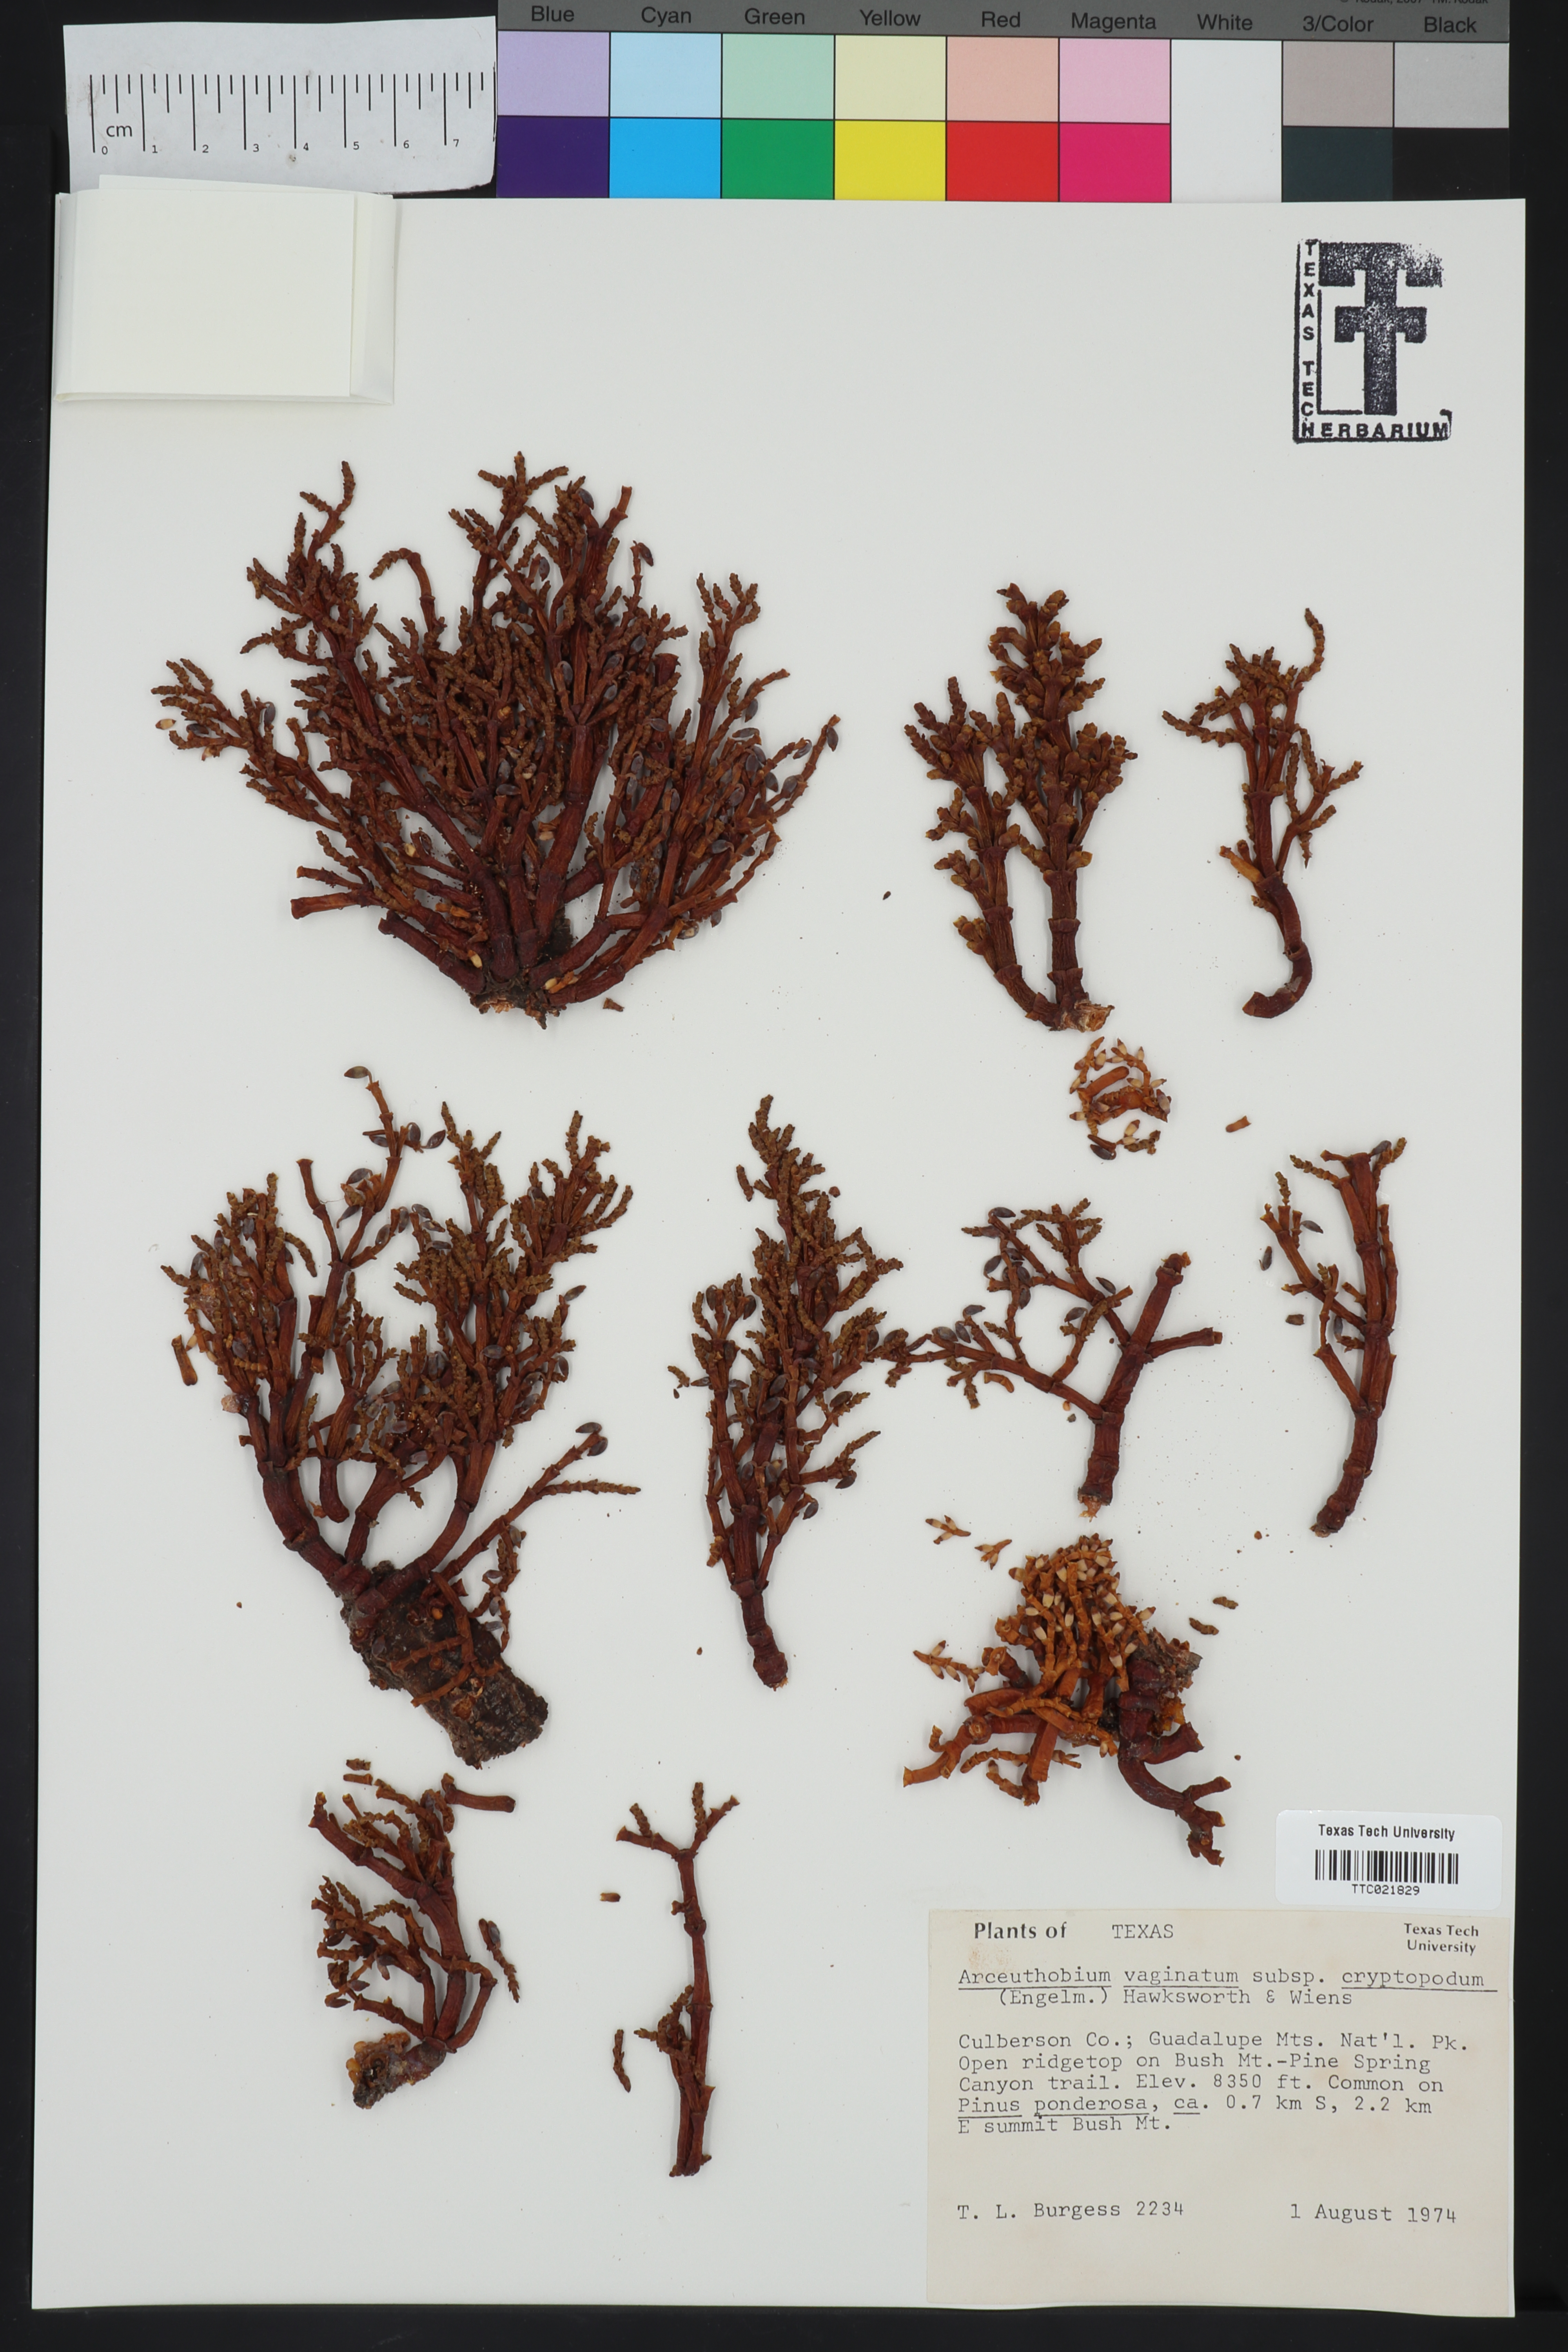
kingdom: Plantae
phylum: Tracheophyta
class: Magnoliopsida
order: Santalales
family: Viscaceae
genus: Arceuthobium
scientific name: Arceuthobium vaginatum
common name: Southwestern dwarf-mistletoe
